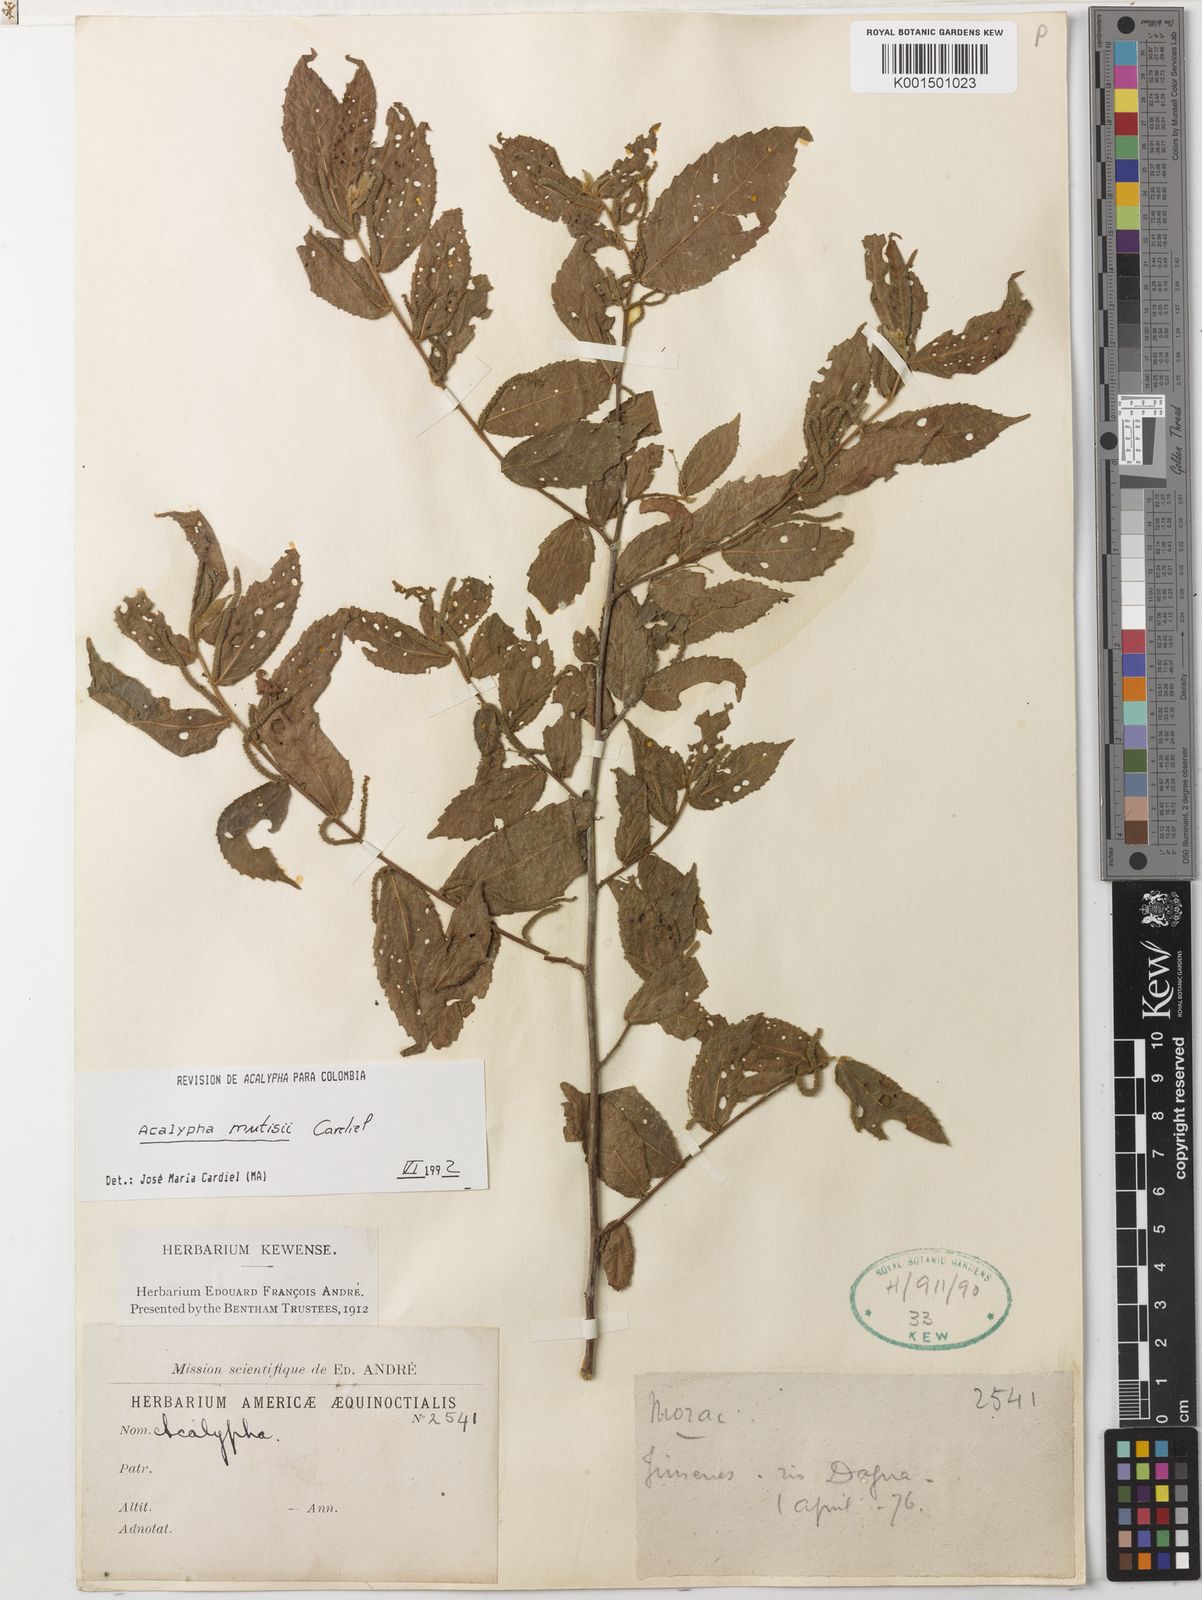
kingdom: Plantae
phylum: Tracheophyta
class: Magnoliopsida
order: Malpighiales
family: Euphorbiaceae
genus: Acalypha
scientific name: Acalypha mutisii
